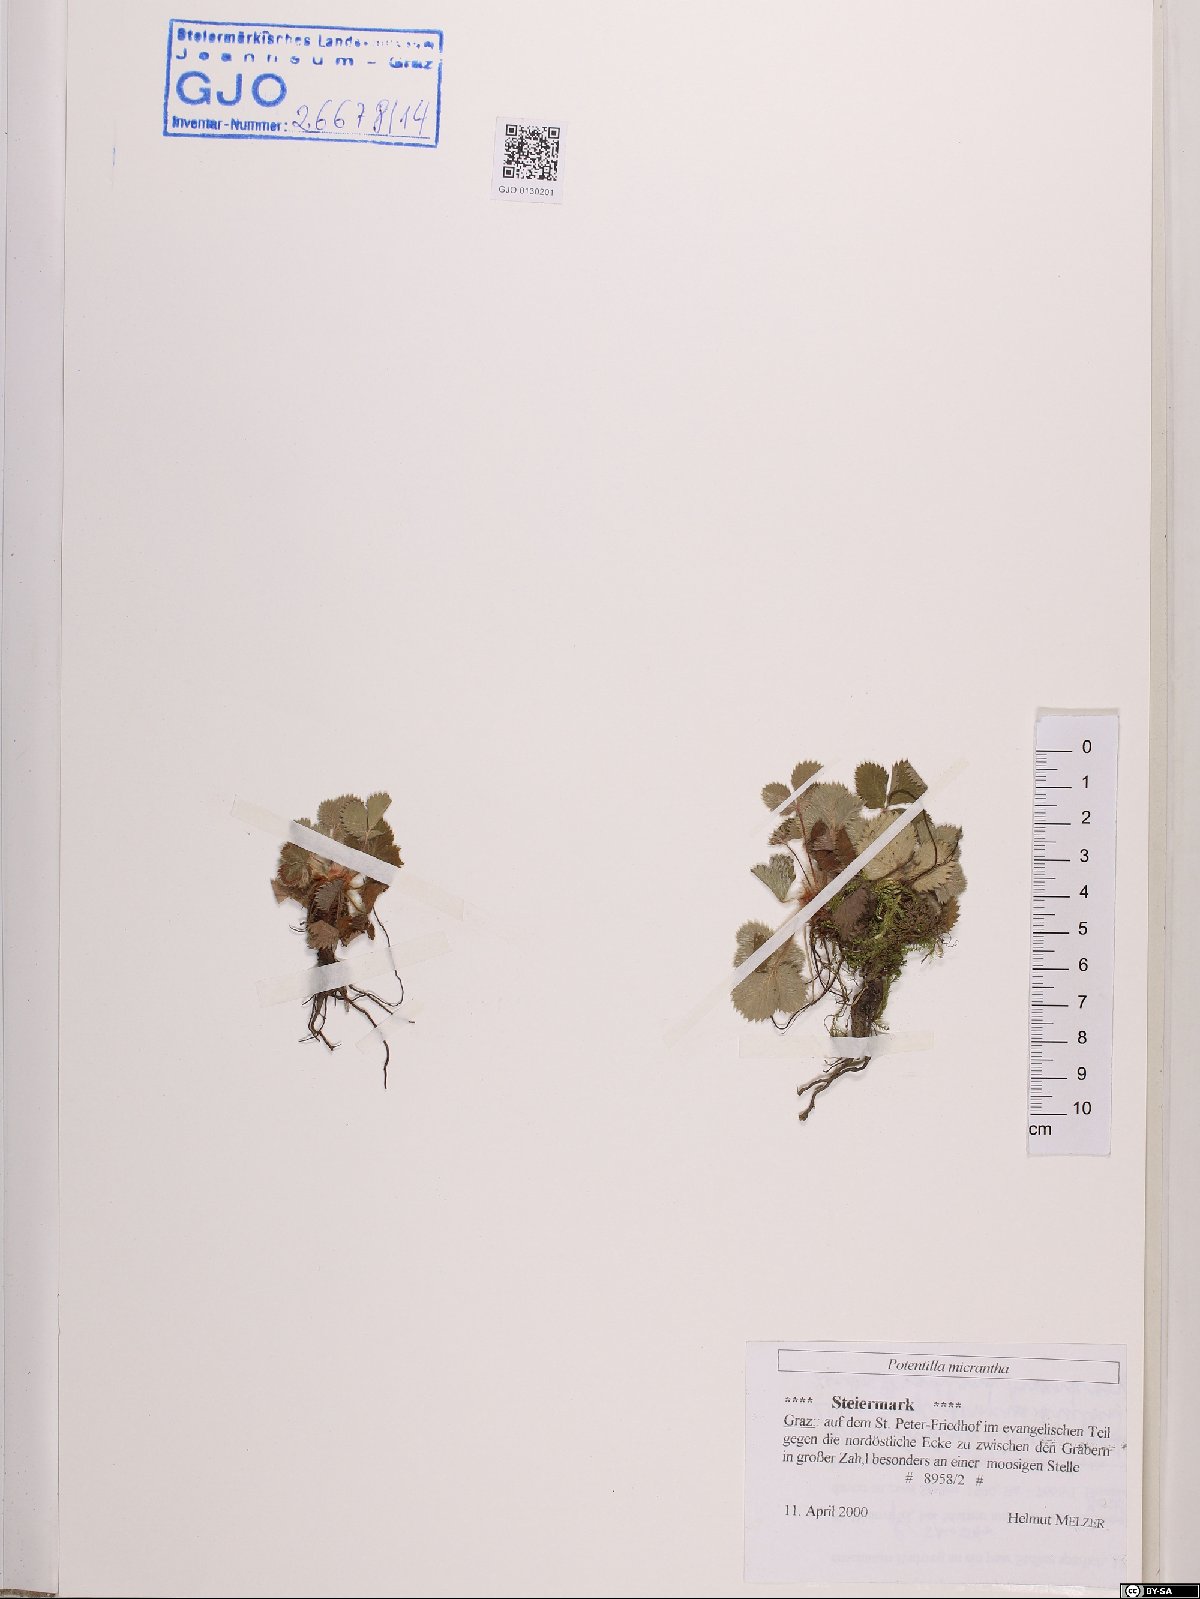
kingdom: Plantae
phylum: Tracheophyta
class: Magnoliopsida
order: Rosales
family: Rosaceae
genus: Potentilla
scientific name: Potentilla micrantha
